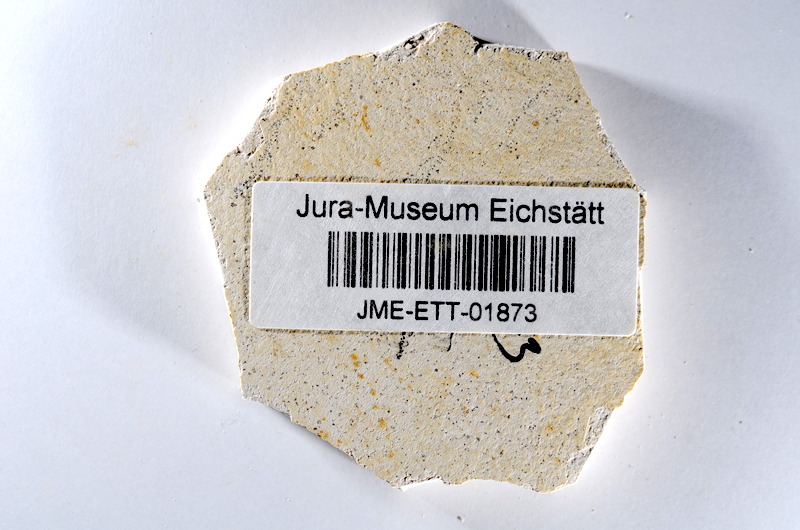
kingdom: Animalia
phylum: Chordata
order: Salmoniformes
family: Orthogonikleithridae
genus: Orthogonikleithrus
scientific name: Orthogonikleithrus hoelli
